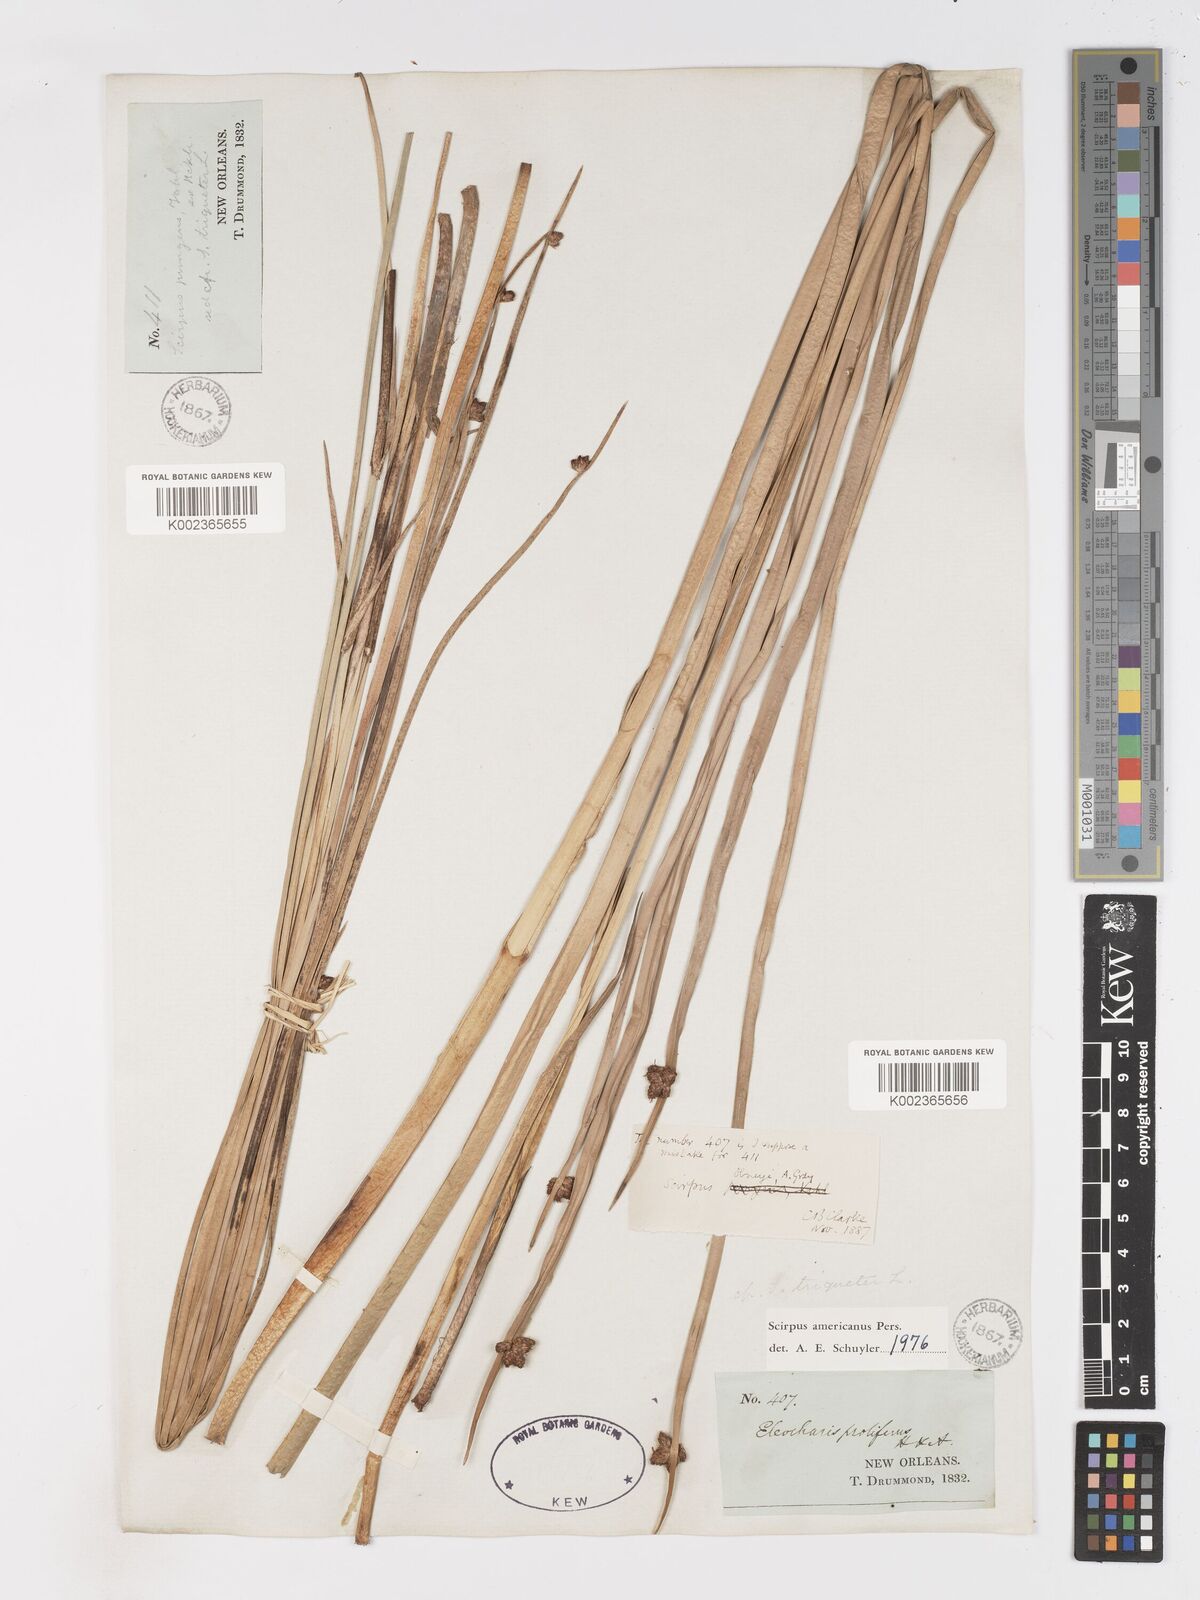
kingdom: Plantae
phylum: Tracheophyta
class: Liliopsida
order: Poales
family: Cyperaceae
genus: Schoenoplectus
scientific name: Schoenoplectus americanus
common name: American three-square bulrush
